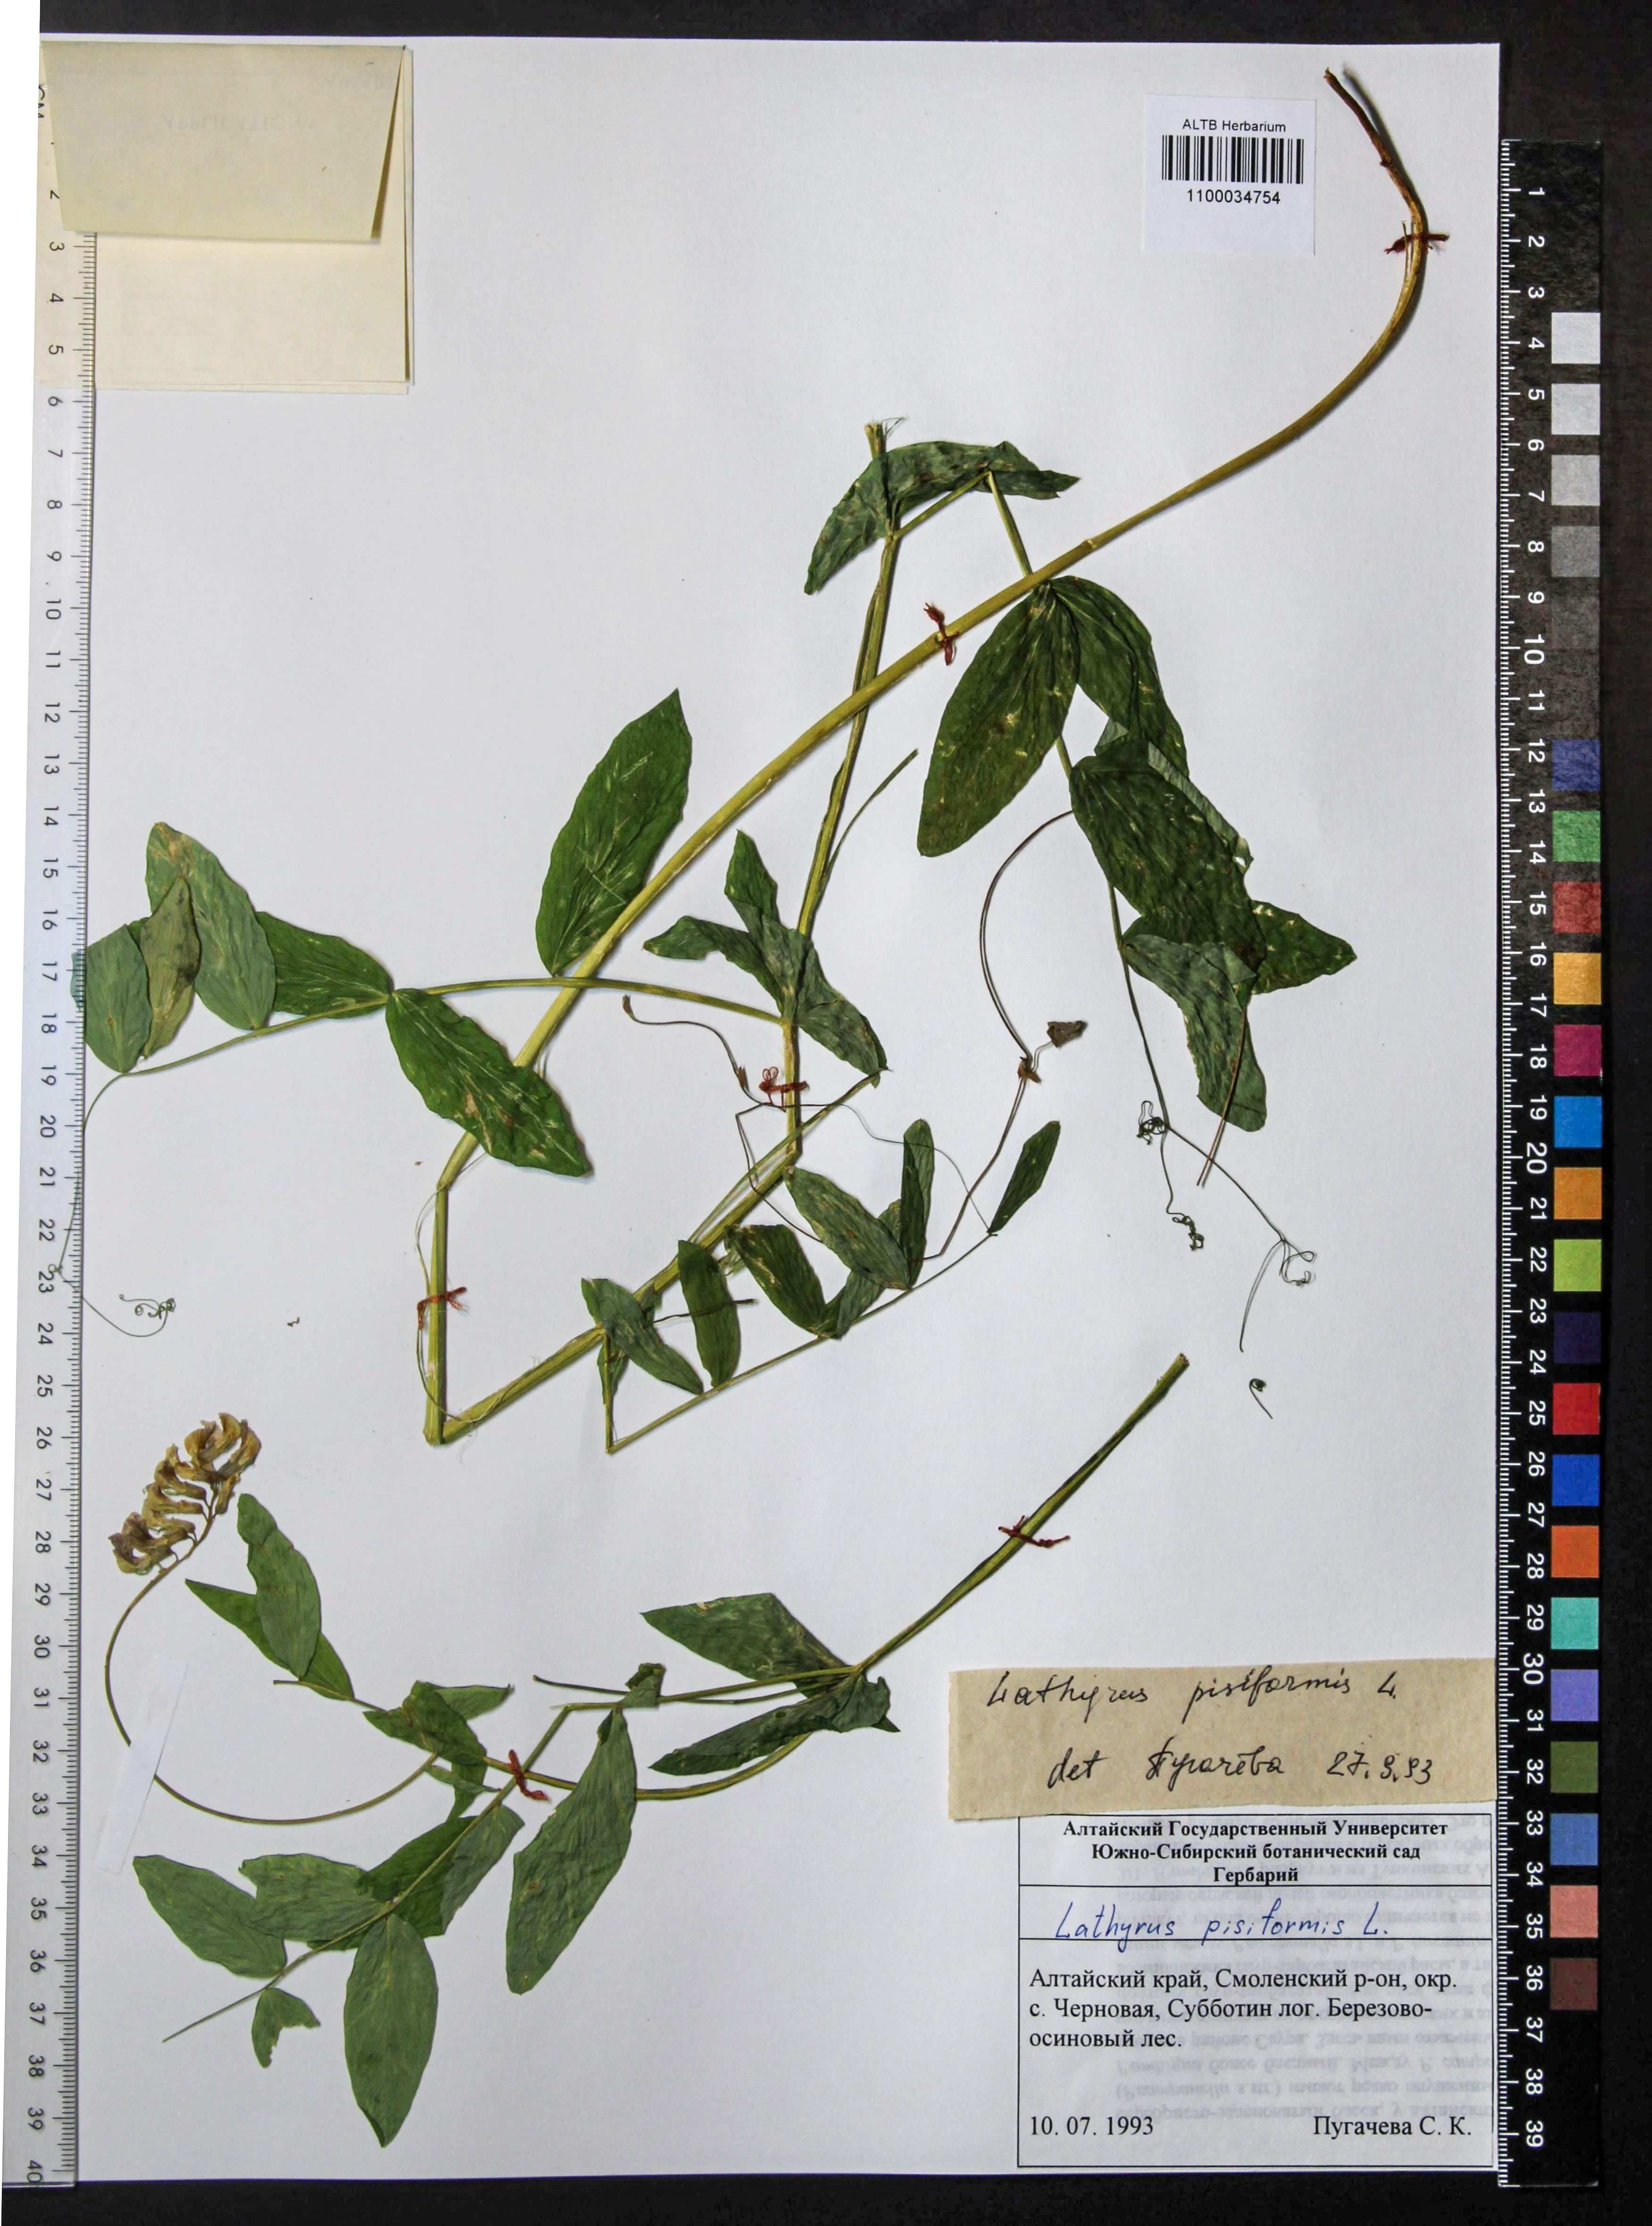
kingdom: Plantae
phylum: Tracheophyta
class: Magnoliopsida
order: Fabales
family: Fabaceae
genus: Lathyrus
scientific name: Lathyrus pisiformis
